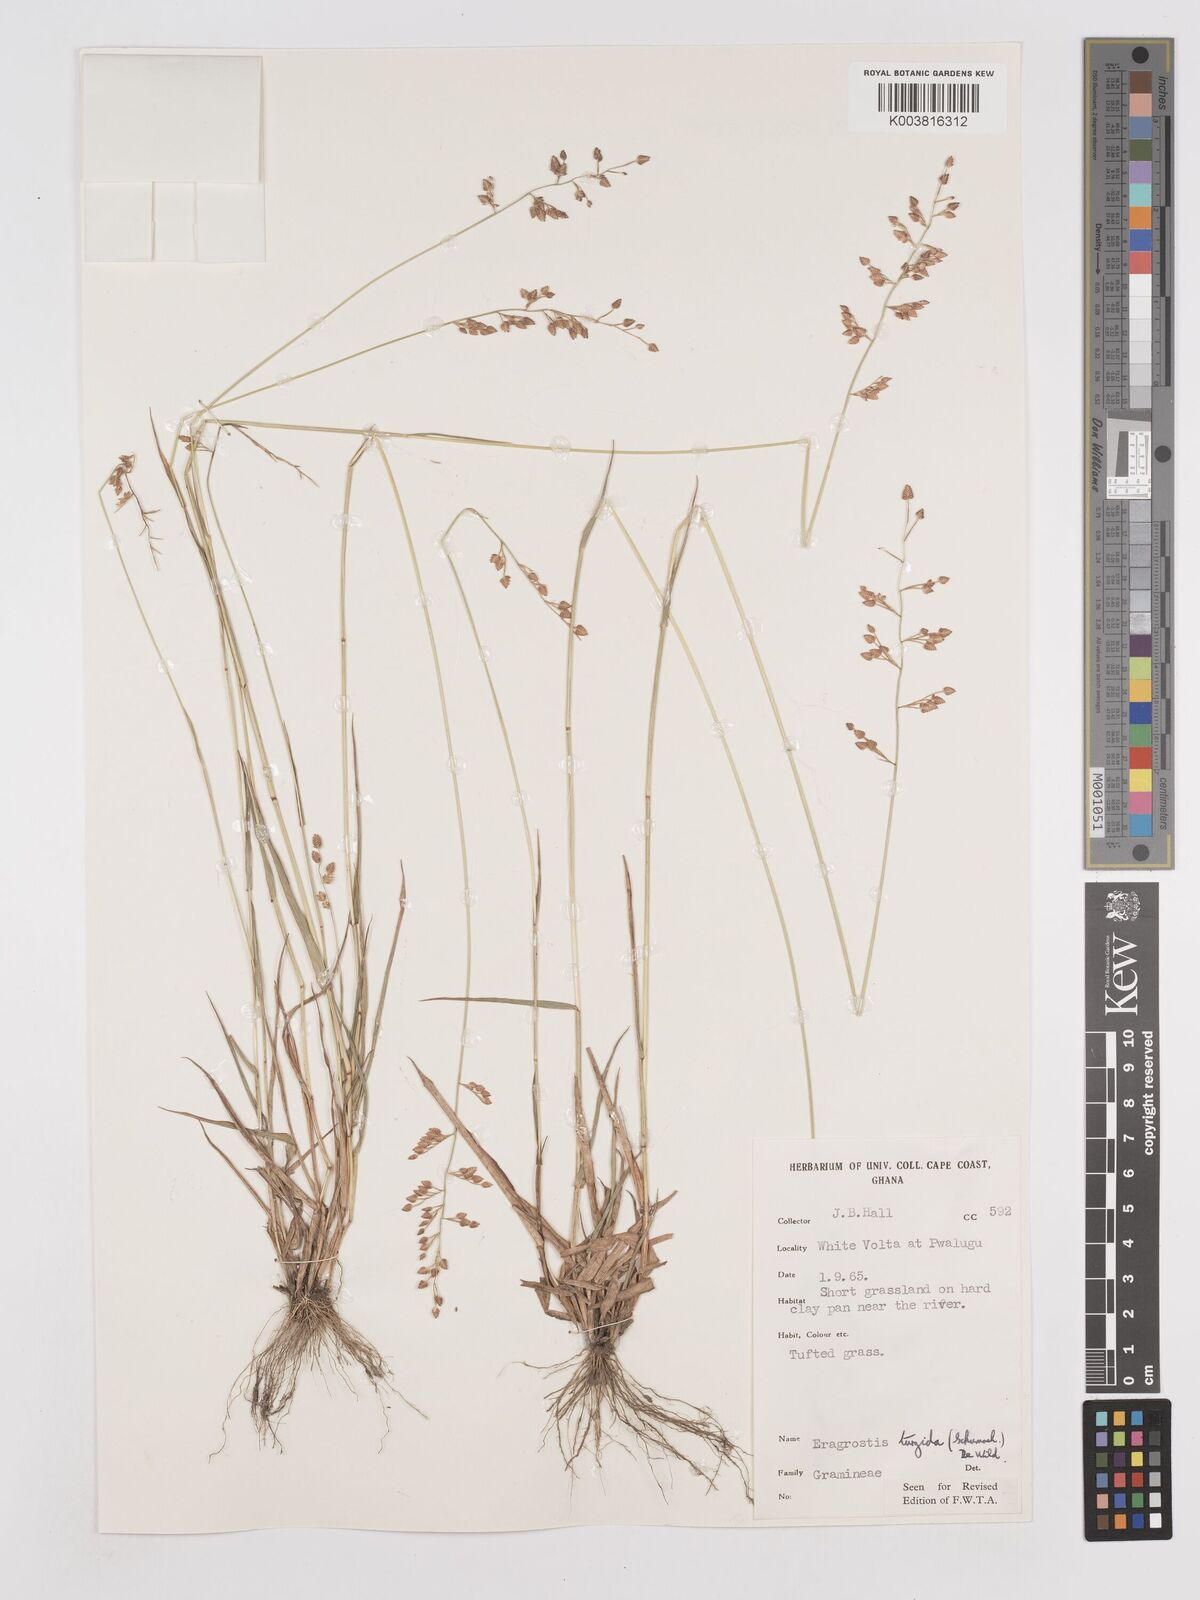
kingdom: Plantae
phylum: Tracheophyta
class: Liliopsida
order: Poales
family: Poaceae
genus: Eragrostis
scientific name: Eragrostis turgida
